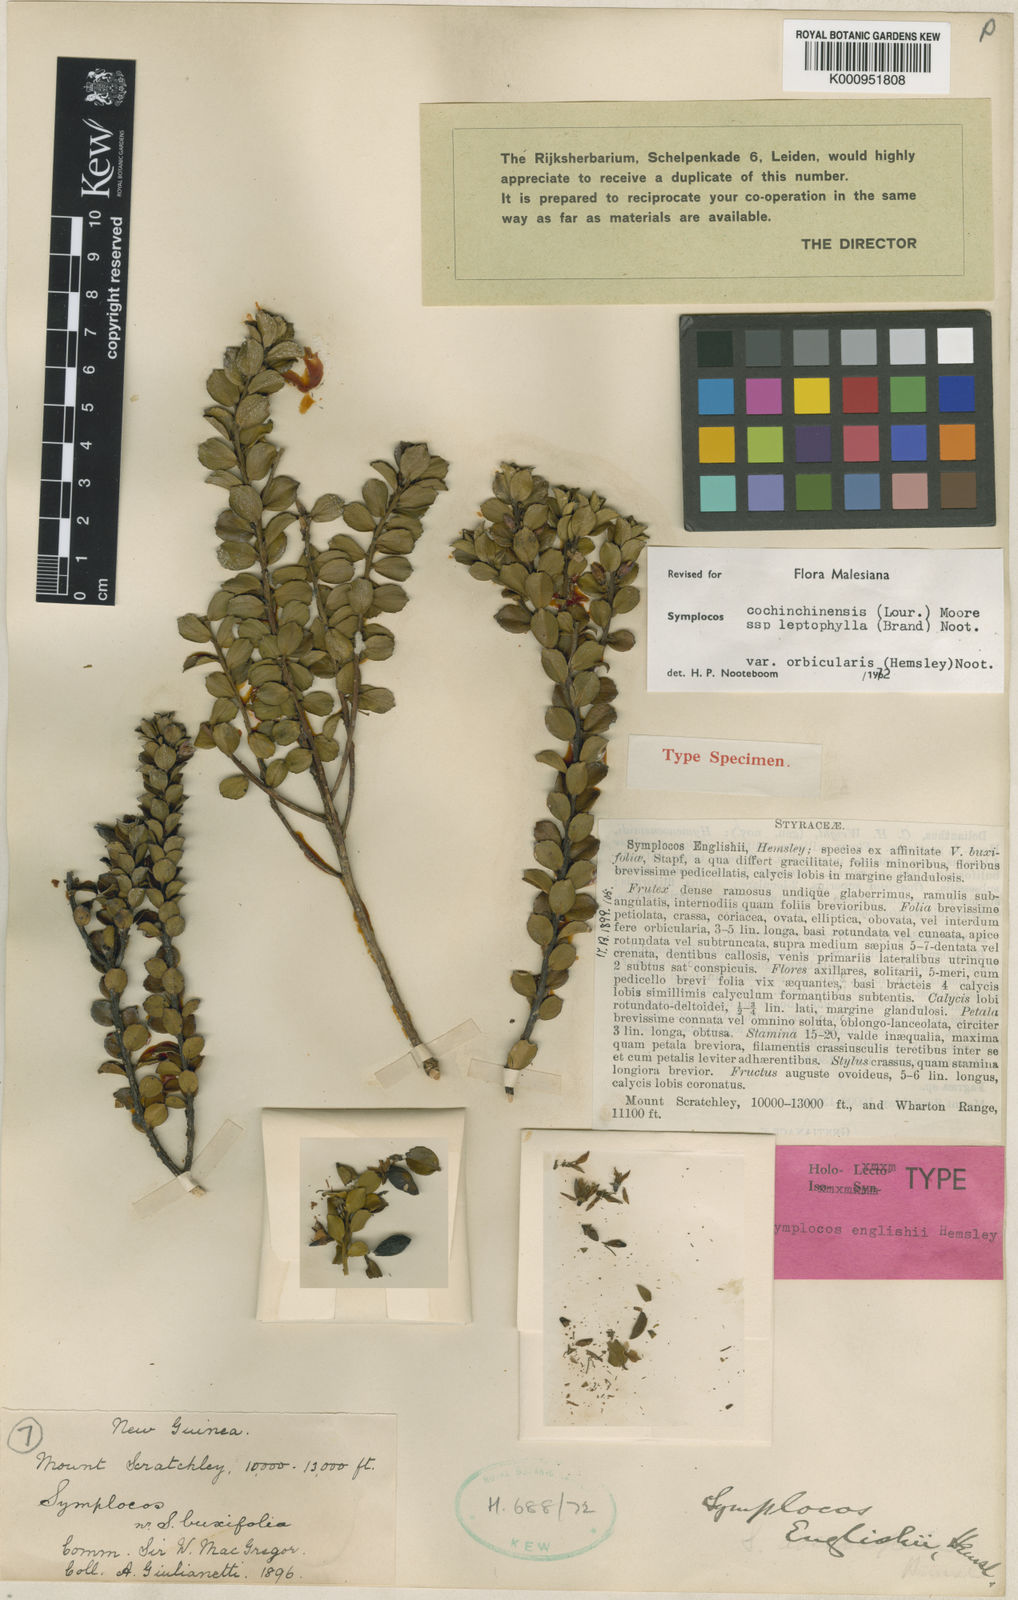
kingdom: Plantae
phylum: Tracheophyta
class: Magnoliopsida
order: Ericales
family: Symplocaceae
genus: Symplocos
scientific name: Symplocos cochinchinensis
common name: Buff hazelwood
